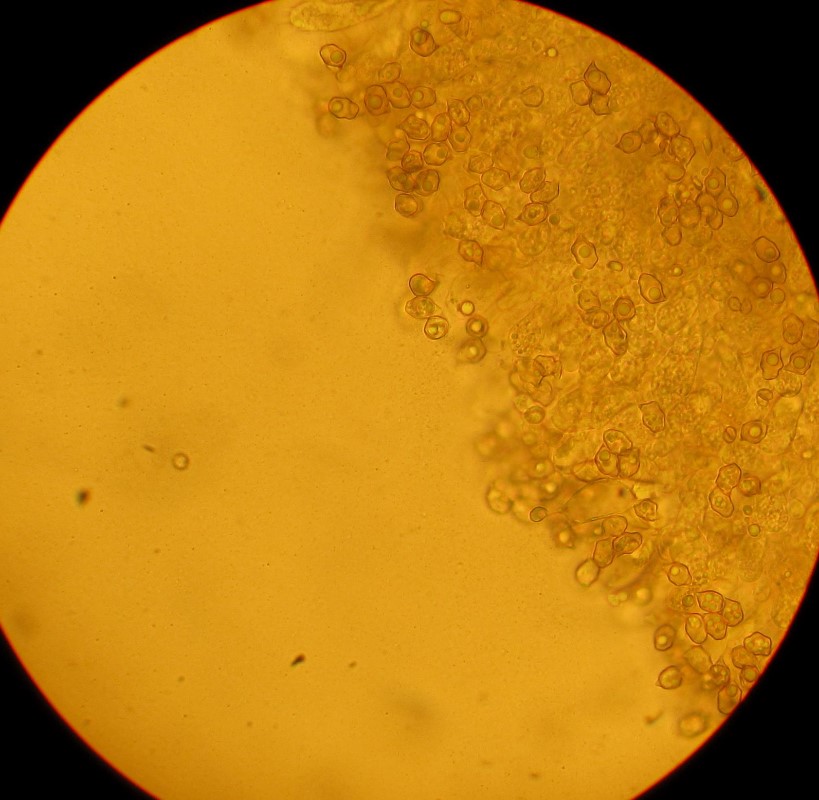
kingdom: Fungi
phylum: Basidiomycota
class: Agaricomycetes
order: Agaricales
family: Entolomataceae
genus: Entoloma
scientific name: Entoloma
